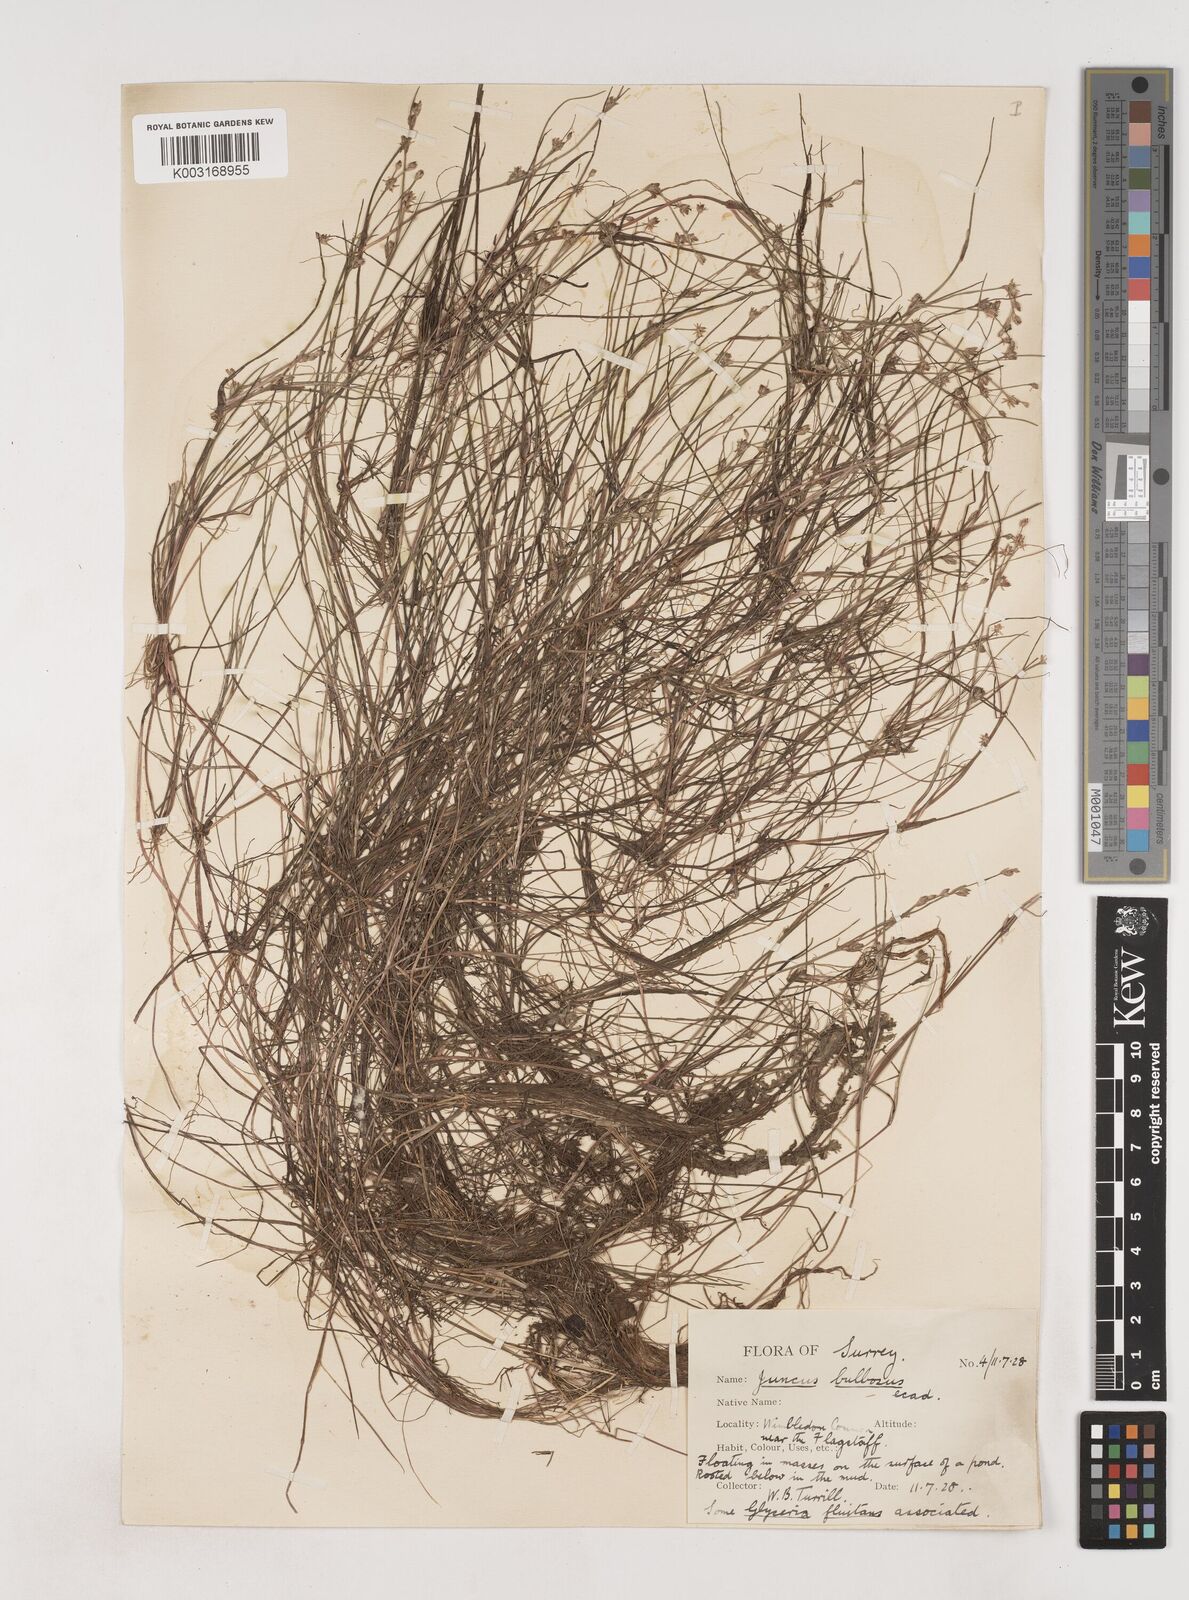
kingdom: Plantae
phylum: Tracheophyta
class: Liliopsida
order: Poales
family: Juncaceae
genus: Juncus
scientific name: Juncus bulbosus
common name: Bulbous rush
